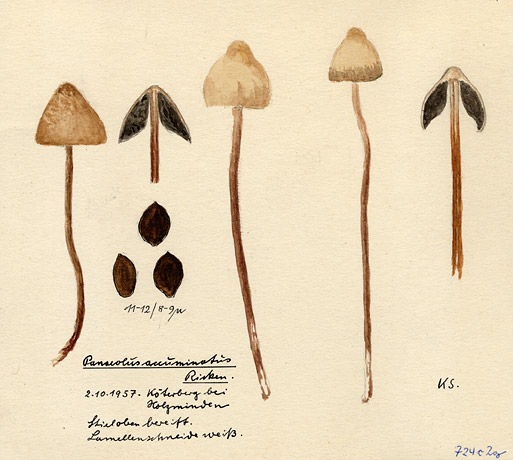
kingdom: Fungi
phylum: Basidiomycota
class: Agaricomycetes
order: Agaricales
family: Bolbitiaceae
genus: Panaeolus
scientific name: Panaeolus rickenii
